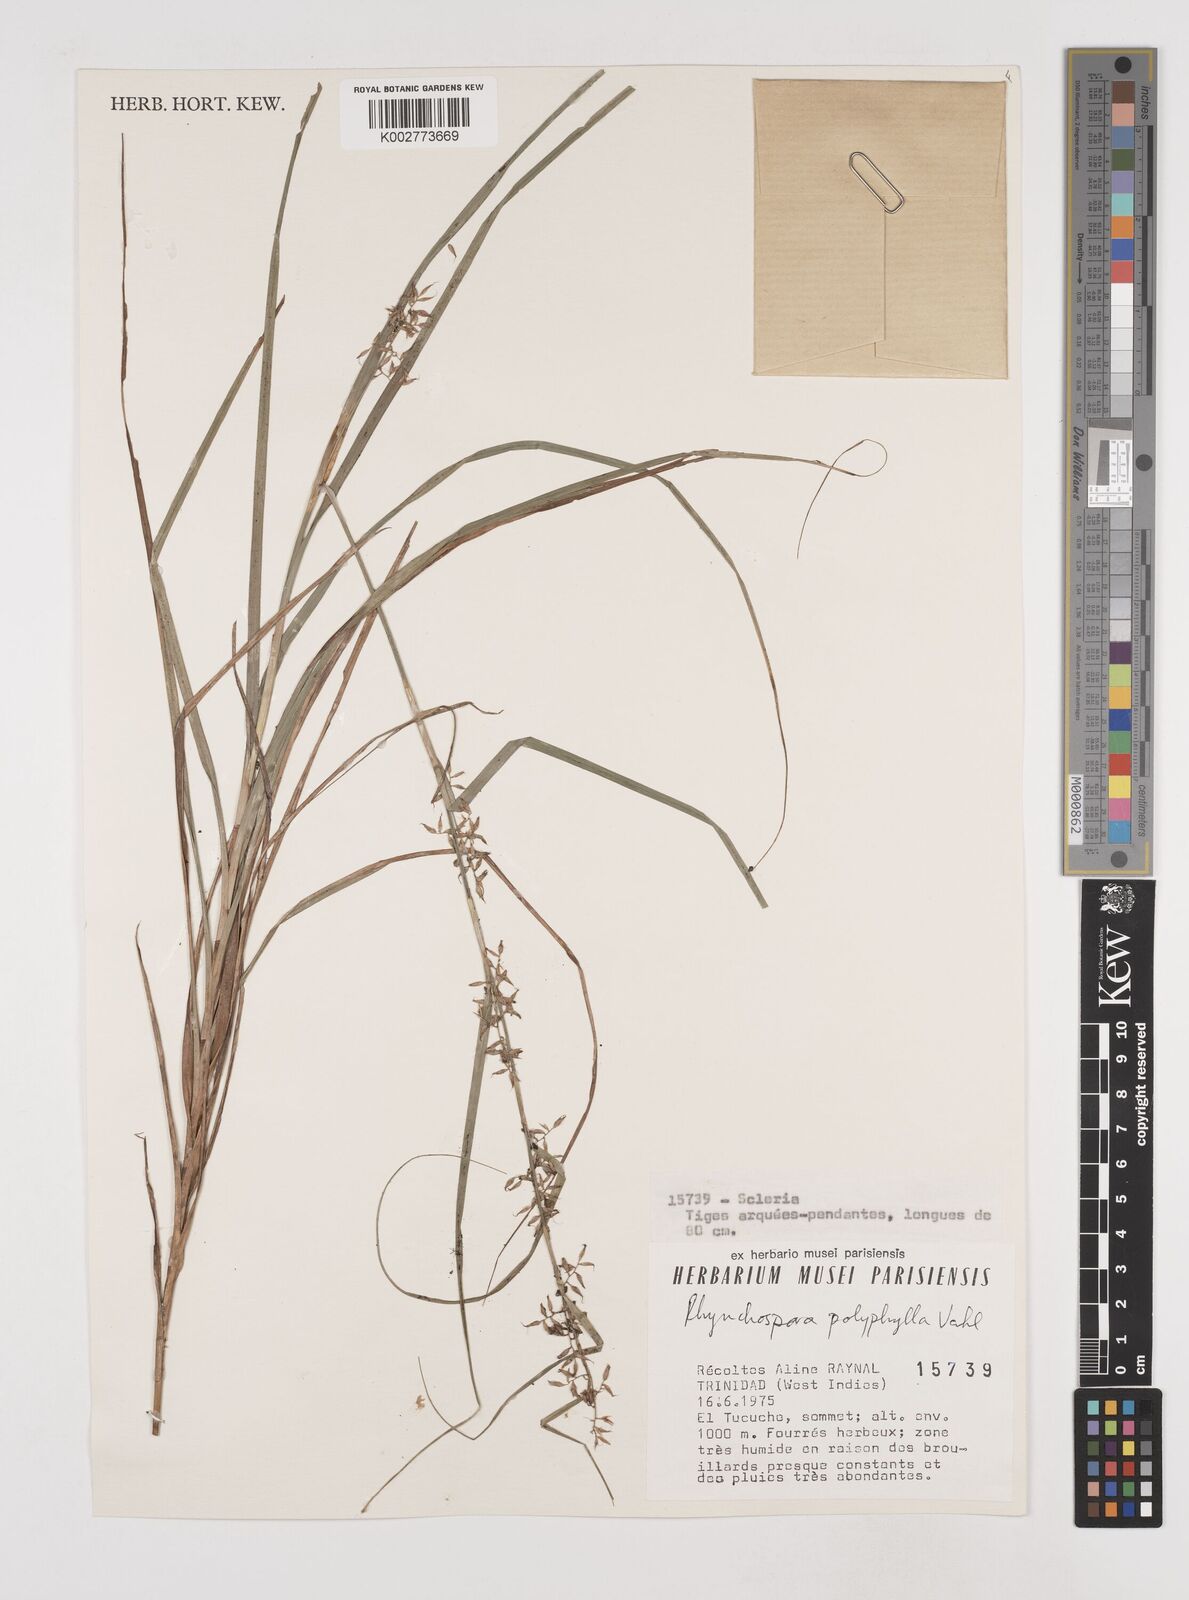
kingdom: Plantae
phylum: Tracheophyta
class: Liliopsida
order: Poales
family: Cyperaceae
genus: Rhynchospora
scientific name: Rhynchospora polyphylla
